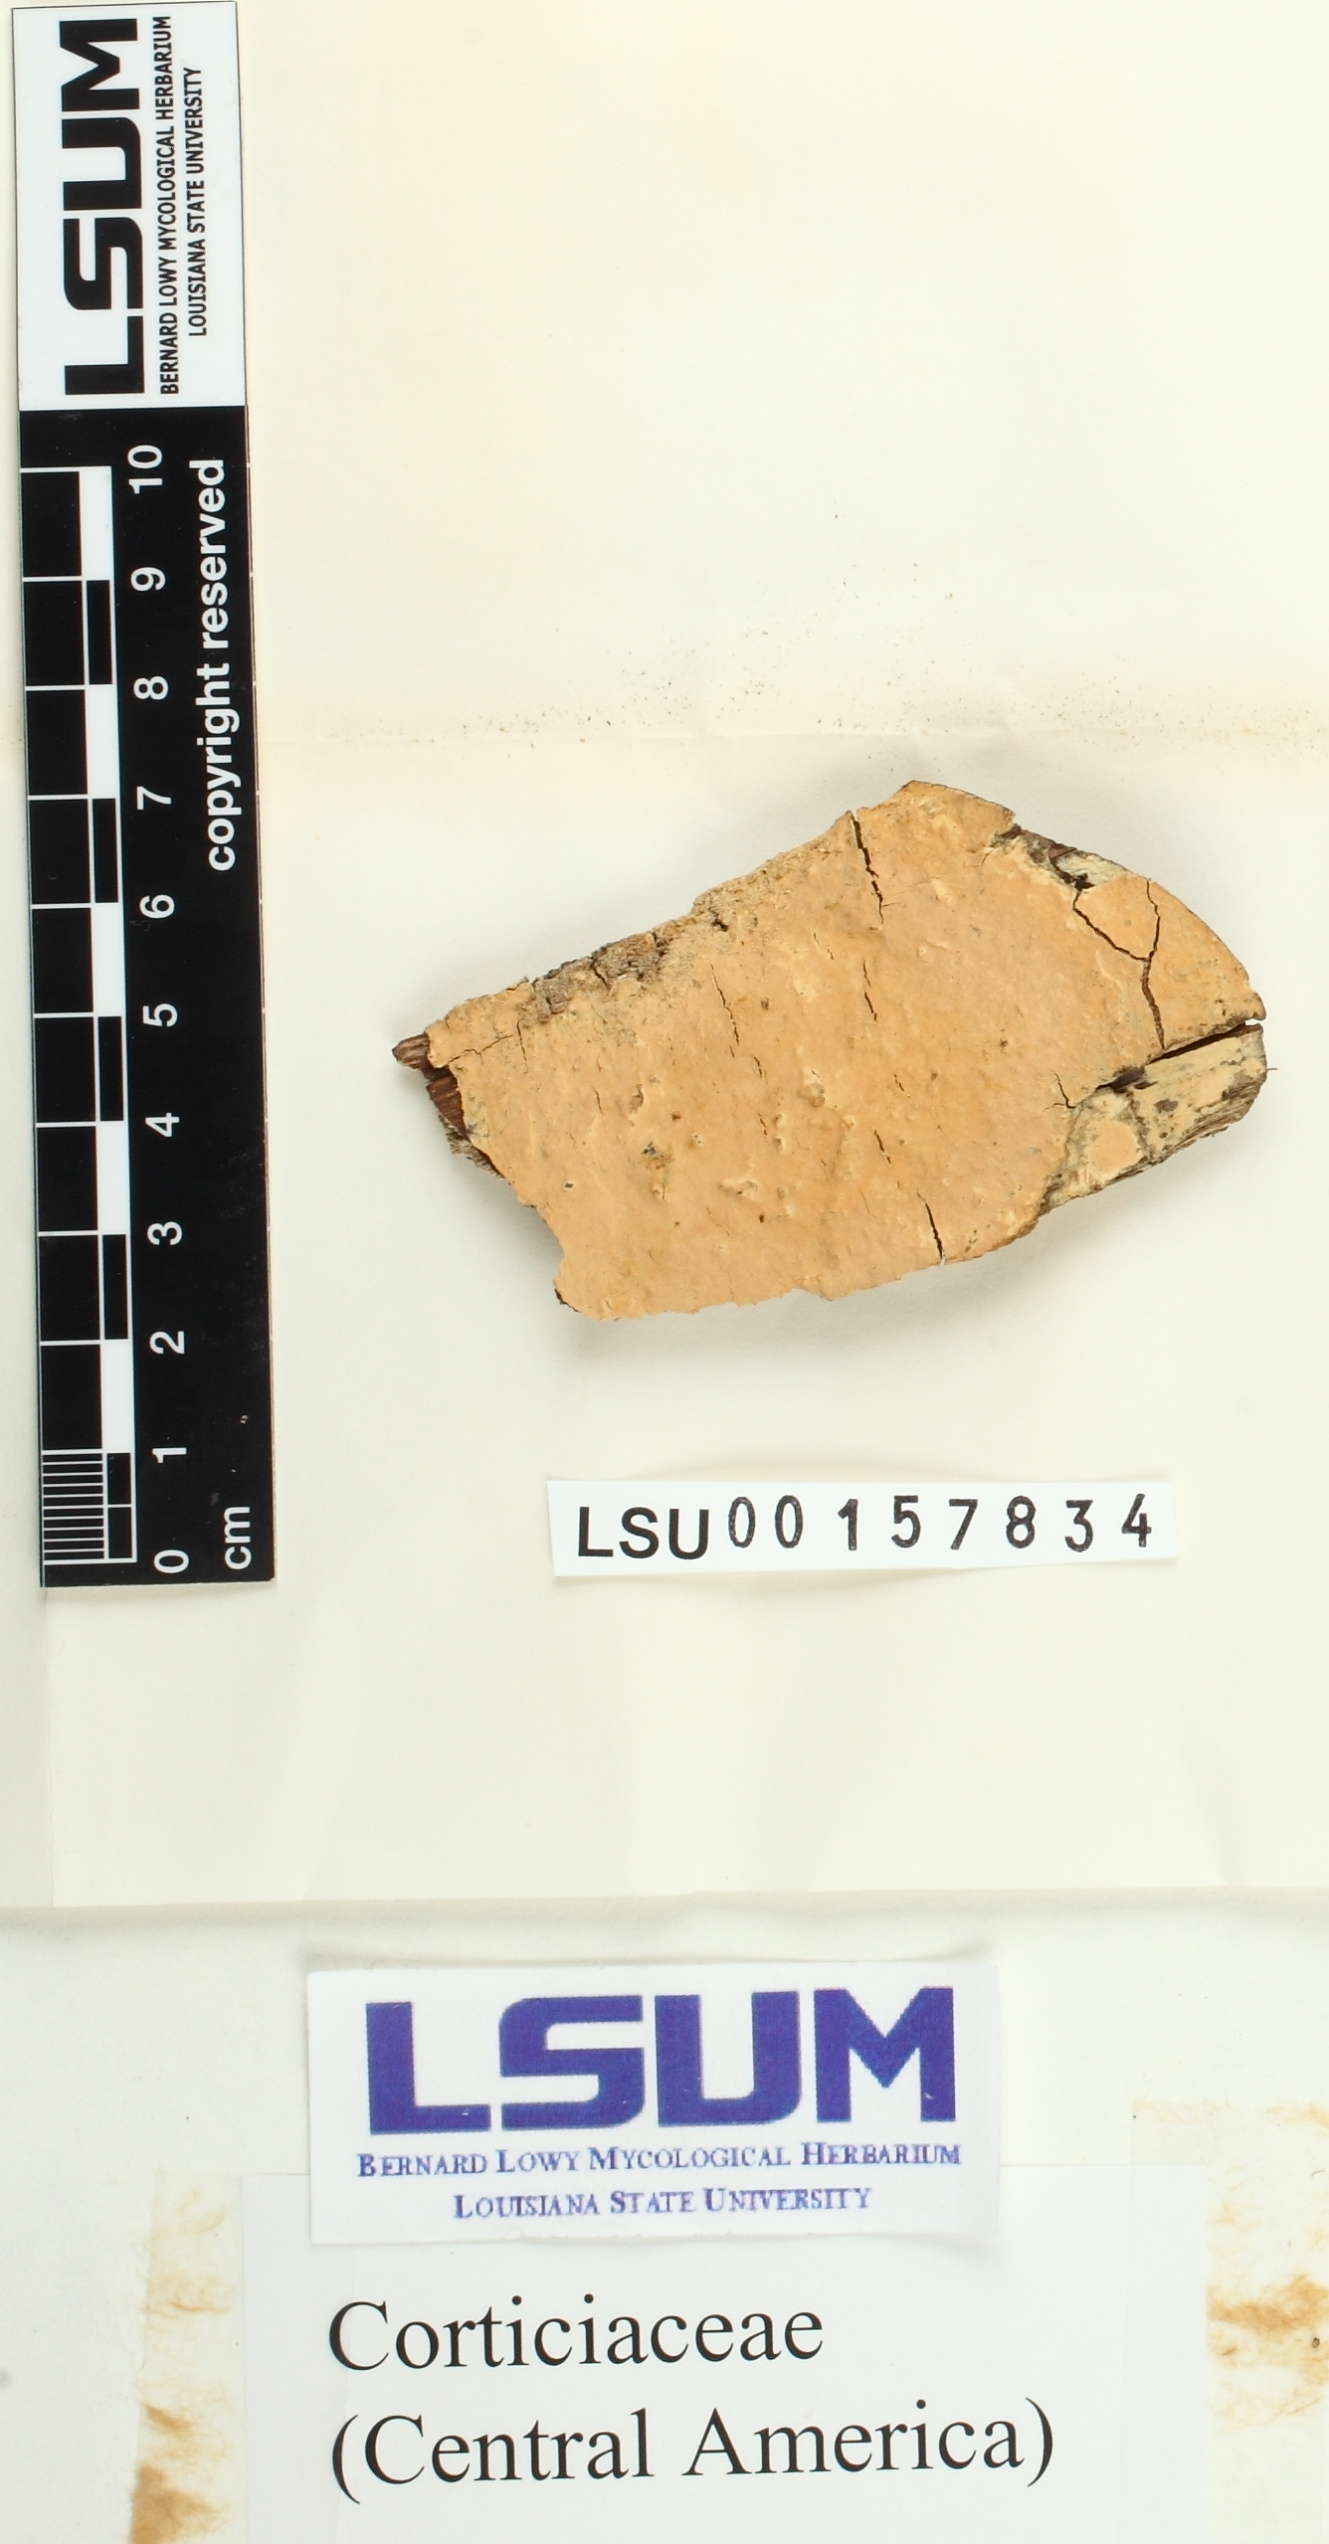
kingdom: Fungi
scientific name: Fungi
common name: Fungi
